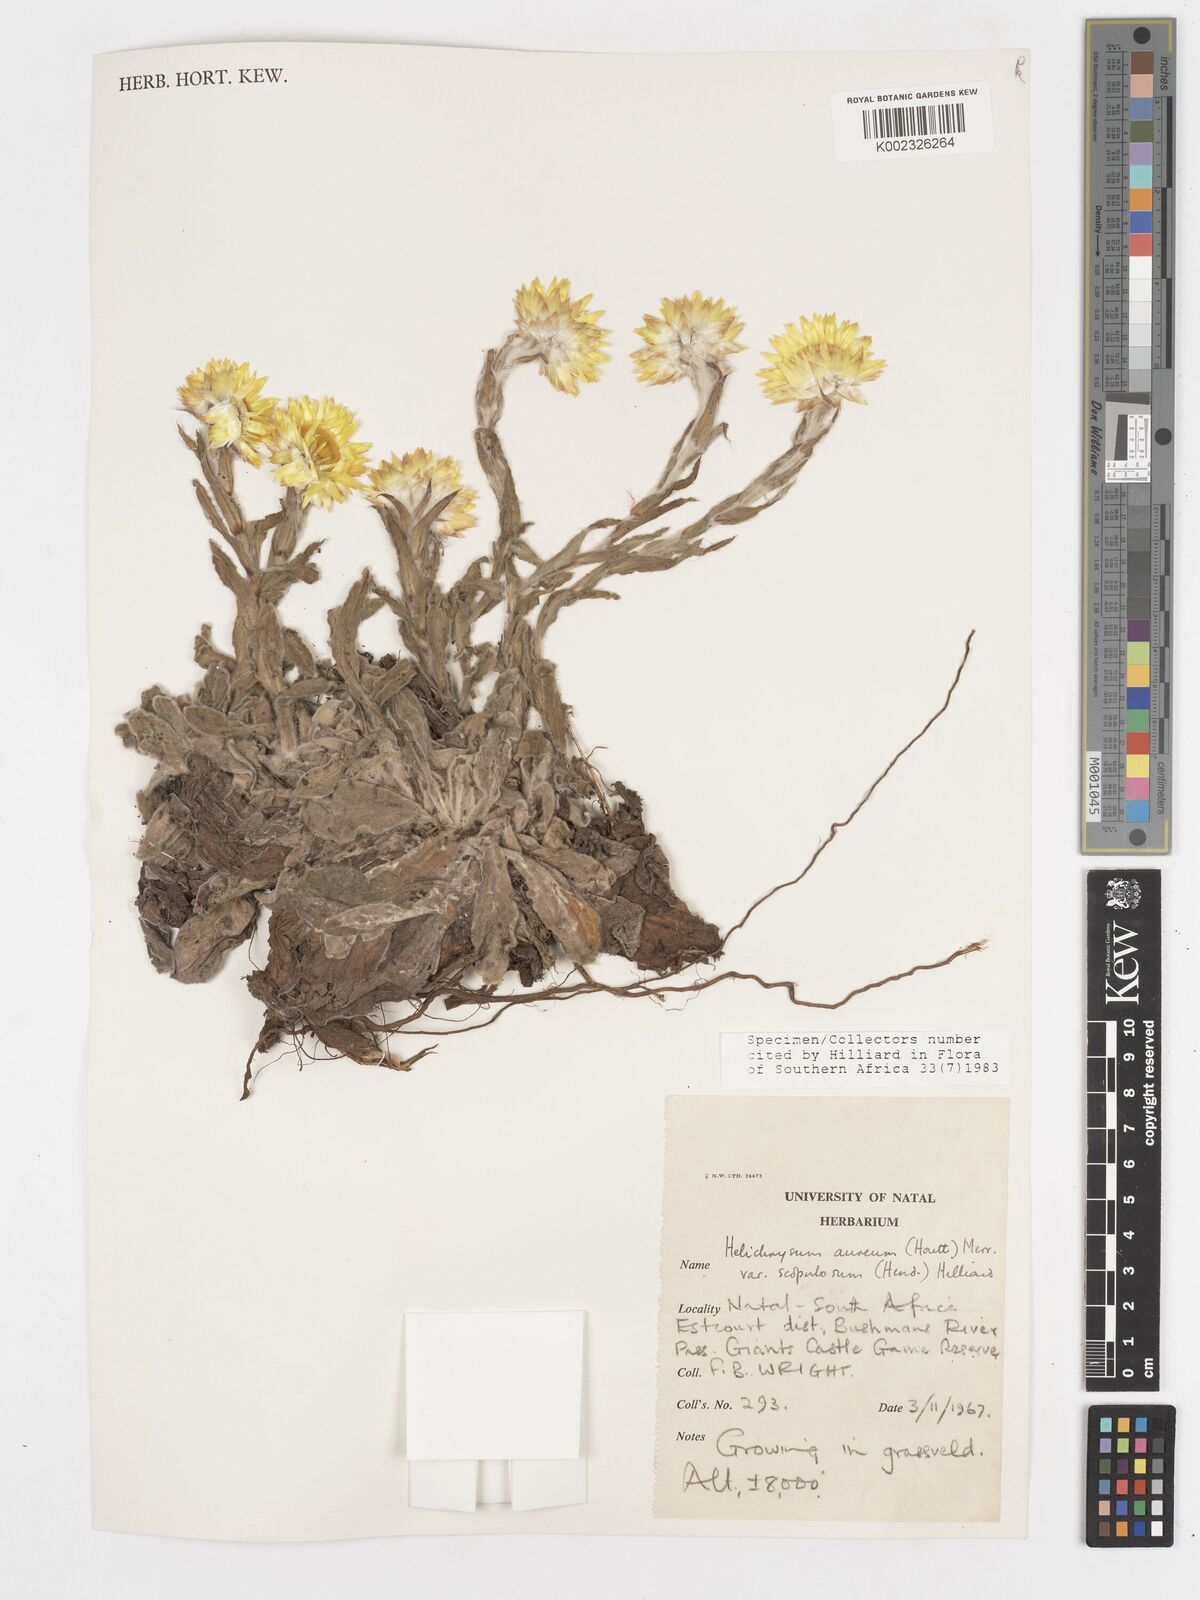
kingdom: Plantae
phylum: Tracheophyta
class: Magnoliopsida
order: Asterales
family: Asteraceae
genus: Helichrysum
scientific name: Helichrysum aureum
